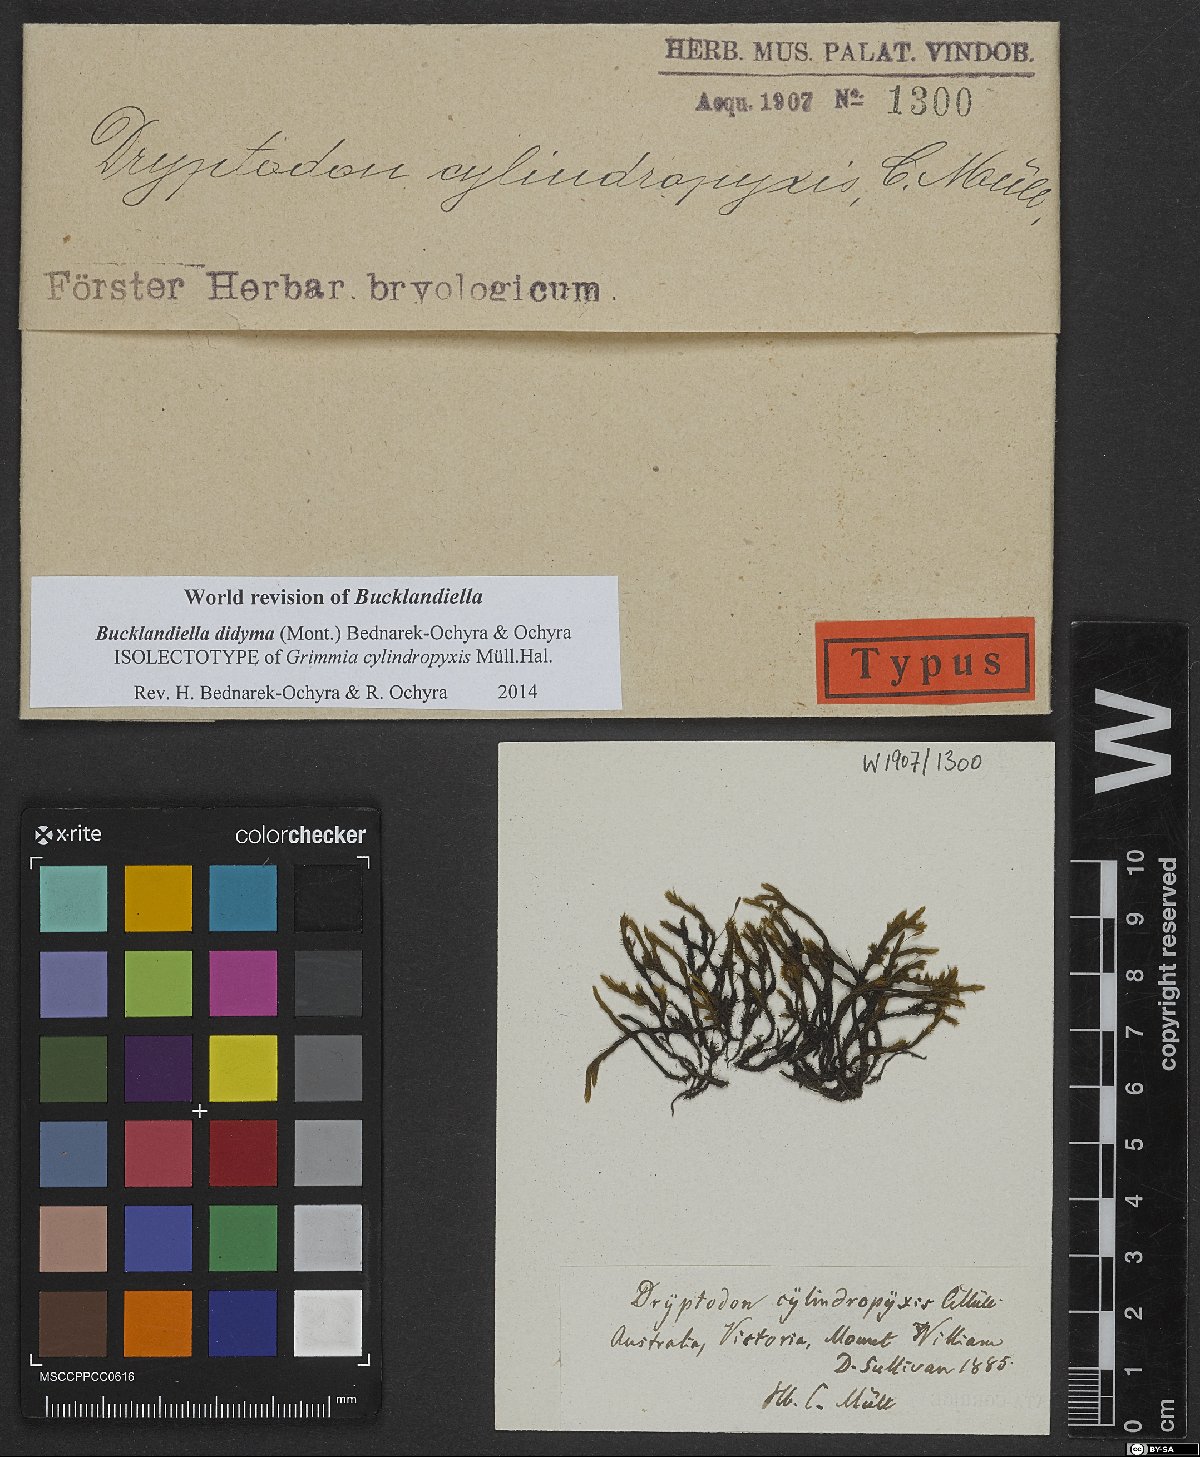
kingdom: Plantae
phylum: Bryophyta
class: Bryopsida
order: Grimmiales
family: Grimmiaceae
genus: Bucklandiella
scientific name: Bucklandiella cylindropyxis
